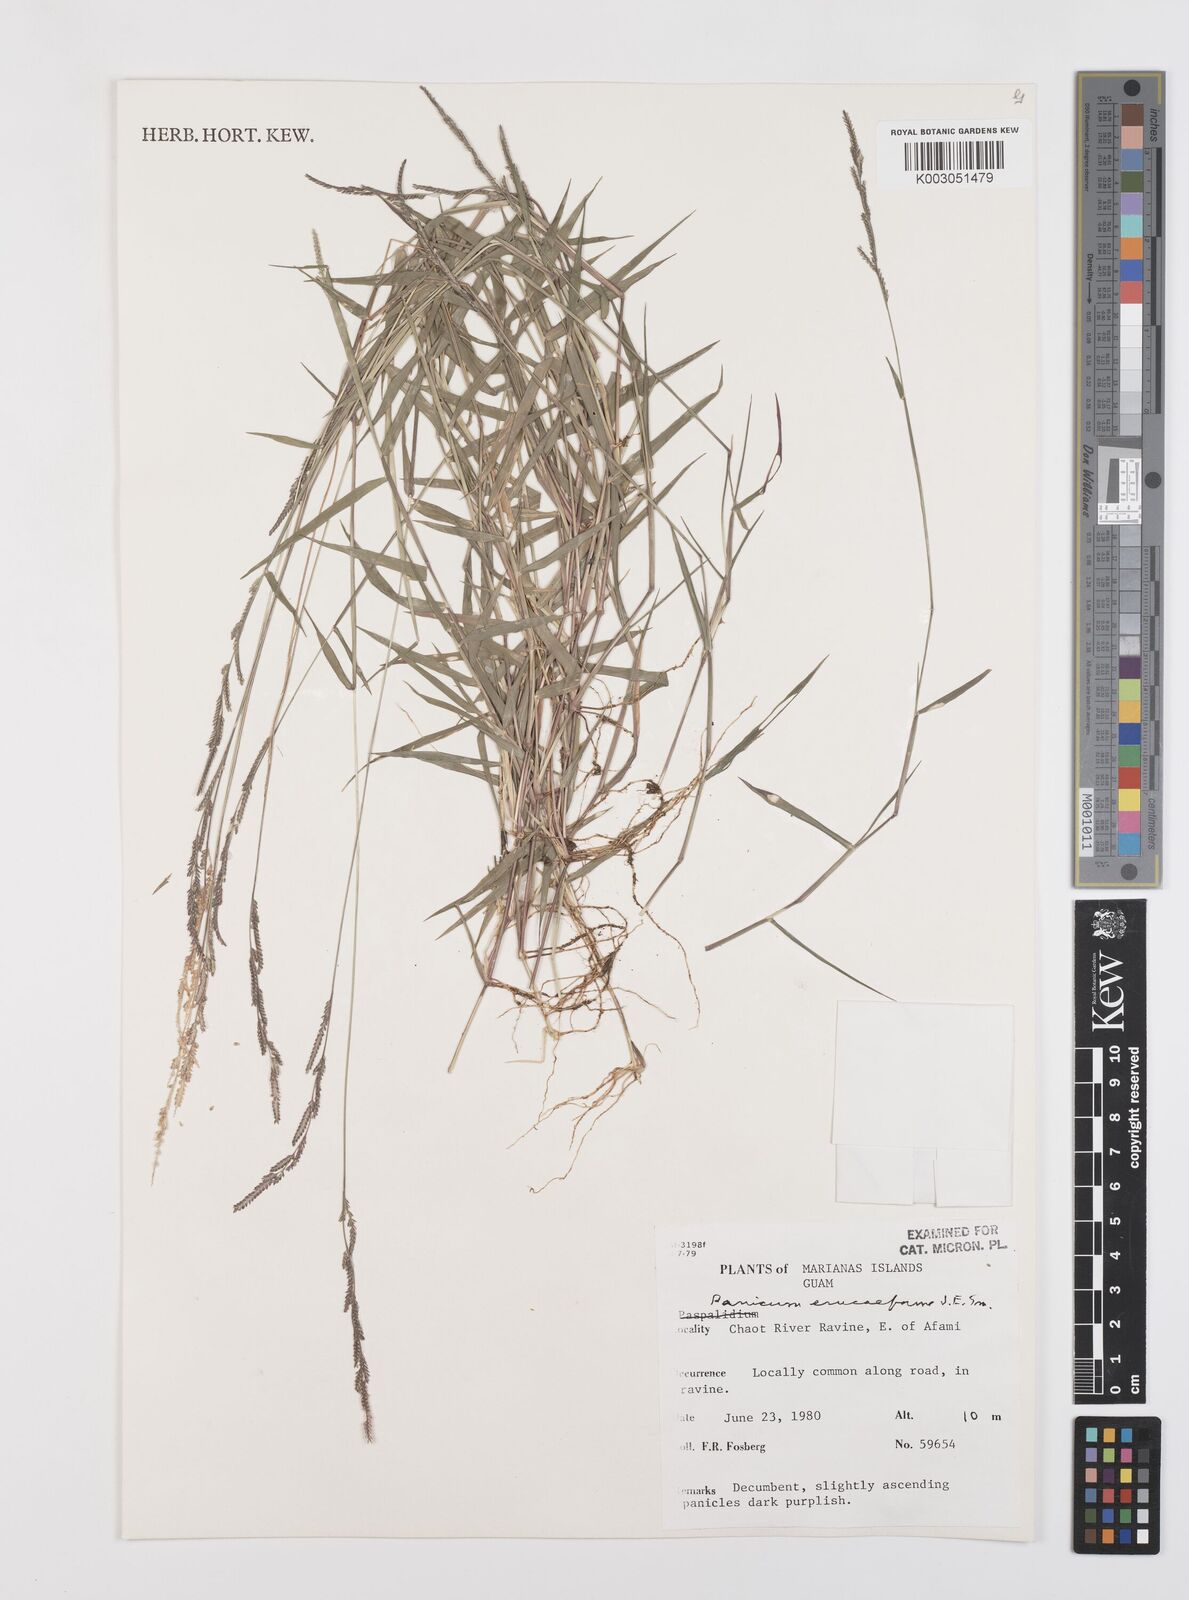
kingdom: Plantae
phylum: Tracheophyta
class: Liliopsida
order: Poales
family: Poaceae
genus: Moorochloa
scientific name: Moorochloa eruciformis
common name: Sweet signalgrass
